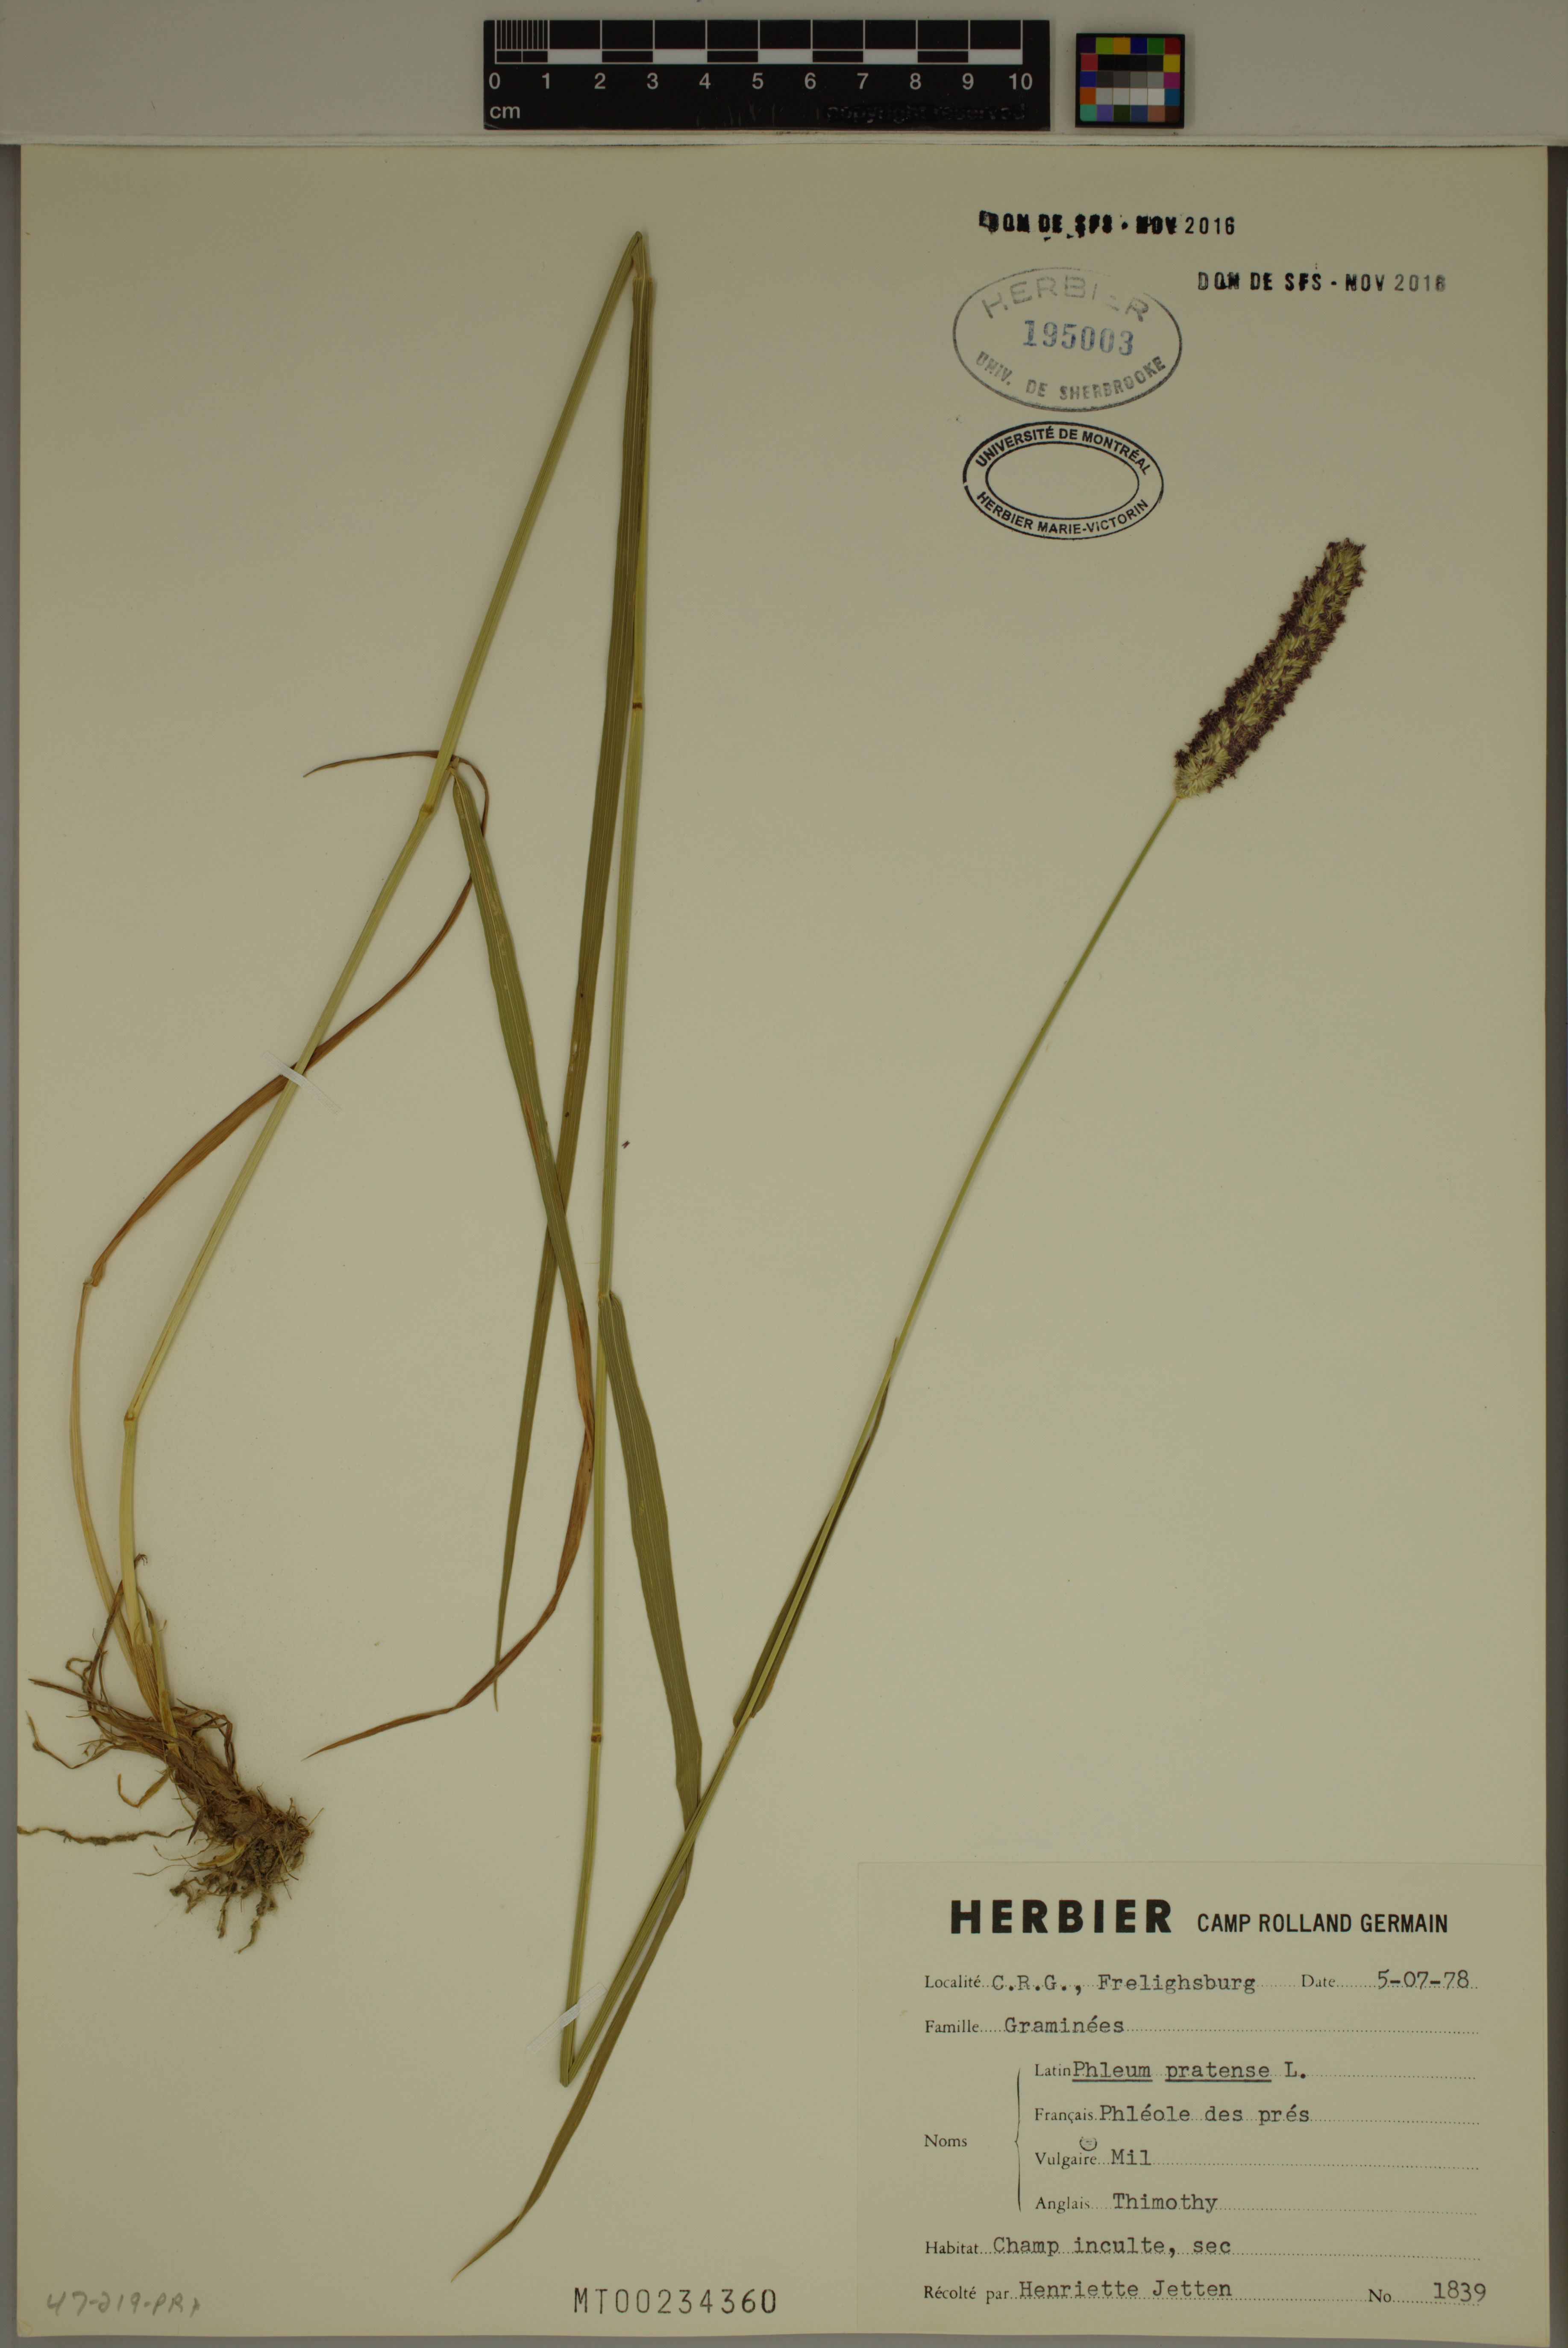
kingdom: Plantae
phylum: Tracheophyta
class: Liliopsida
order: Poales
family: Poaceae
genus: Phleum
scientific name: Phleum pratense
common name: Timothy grass
